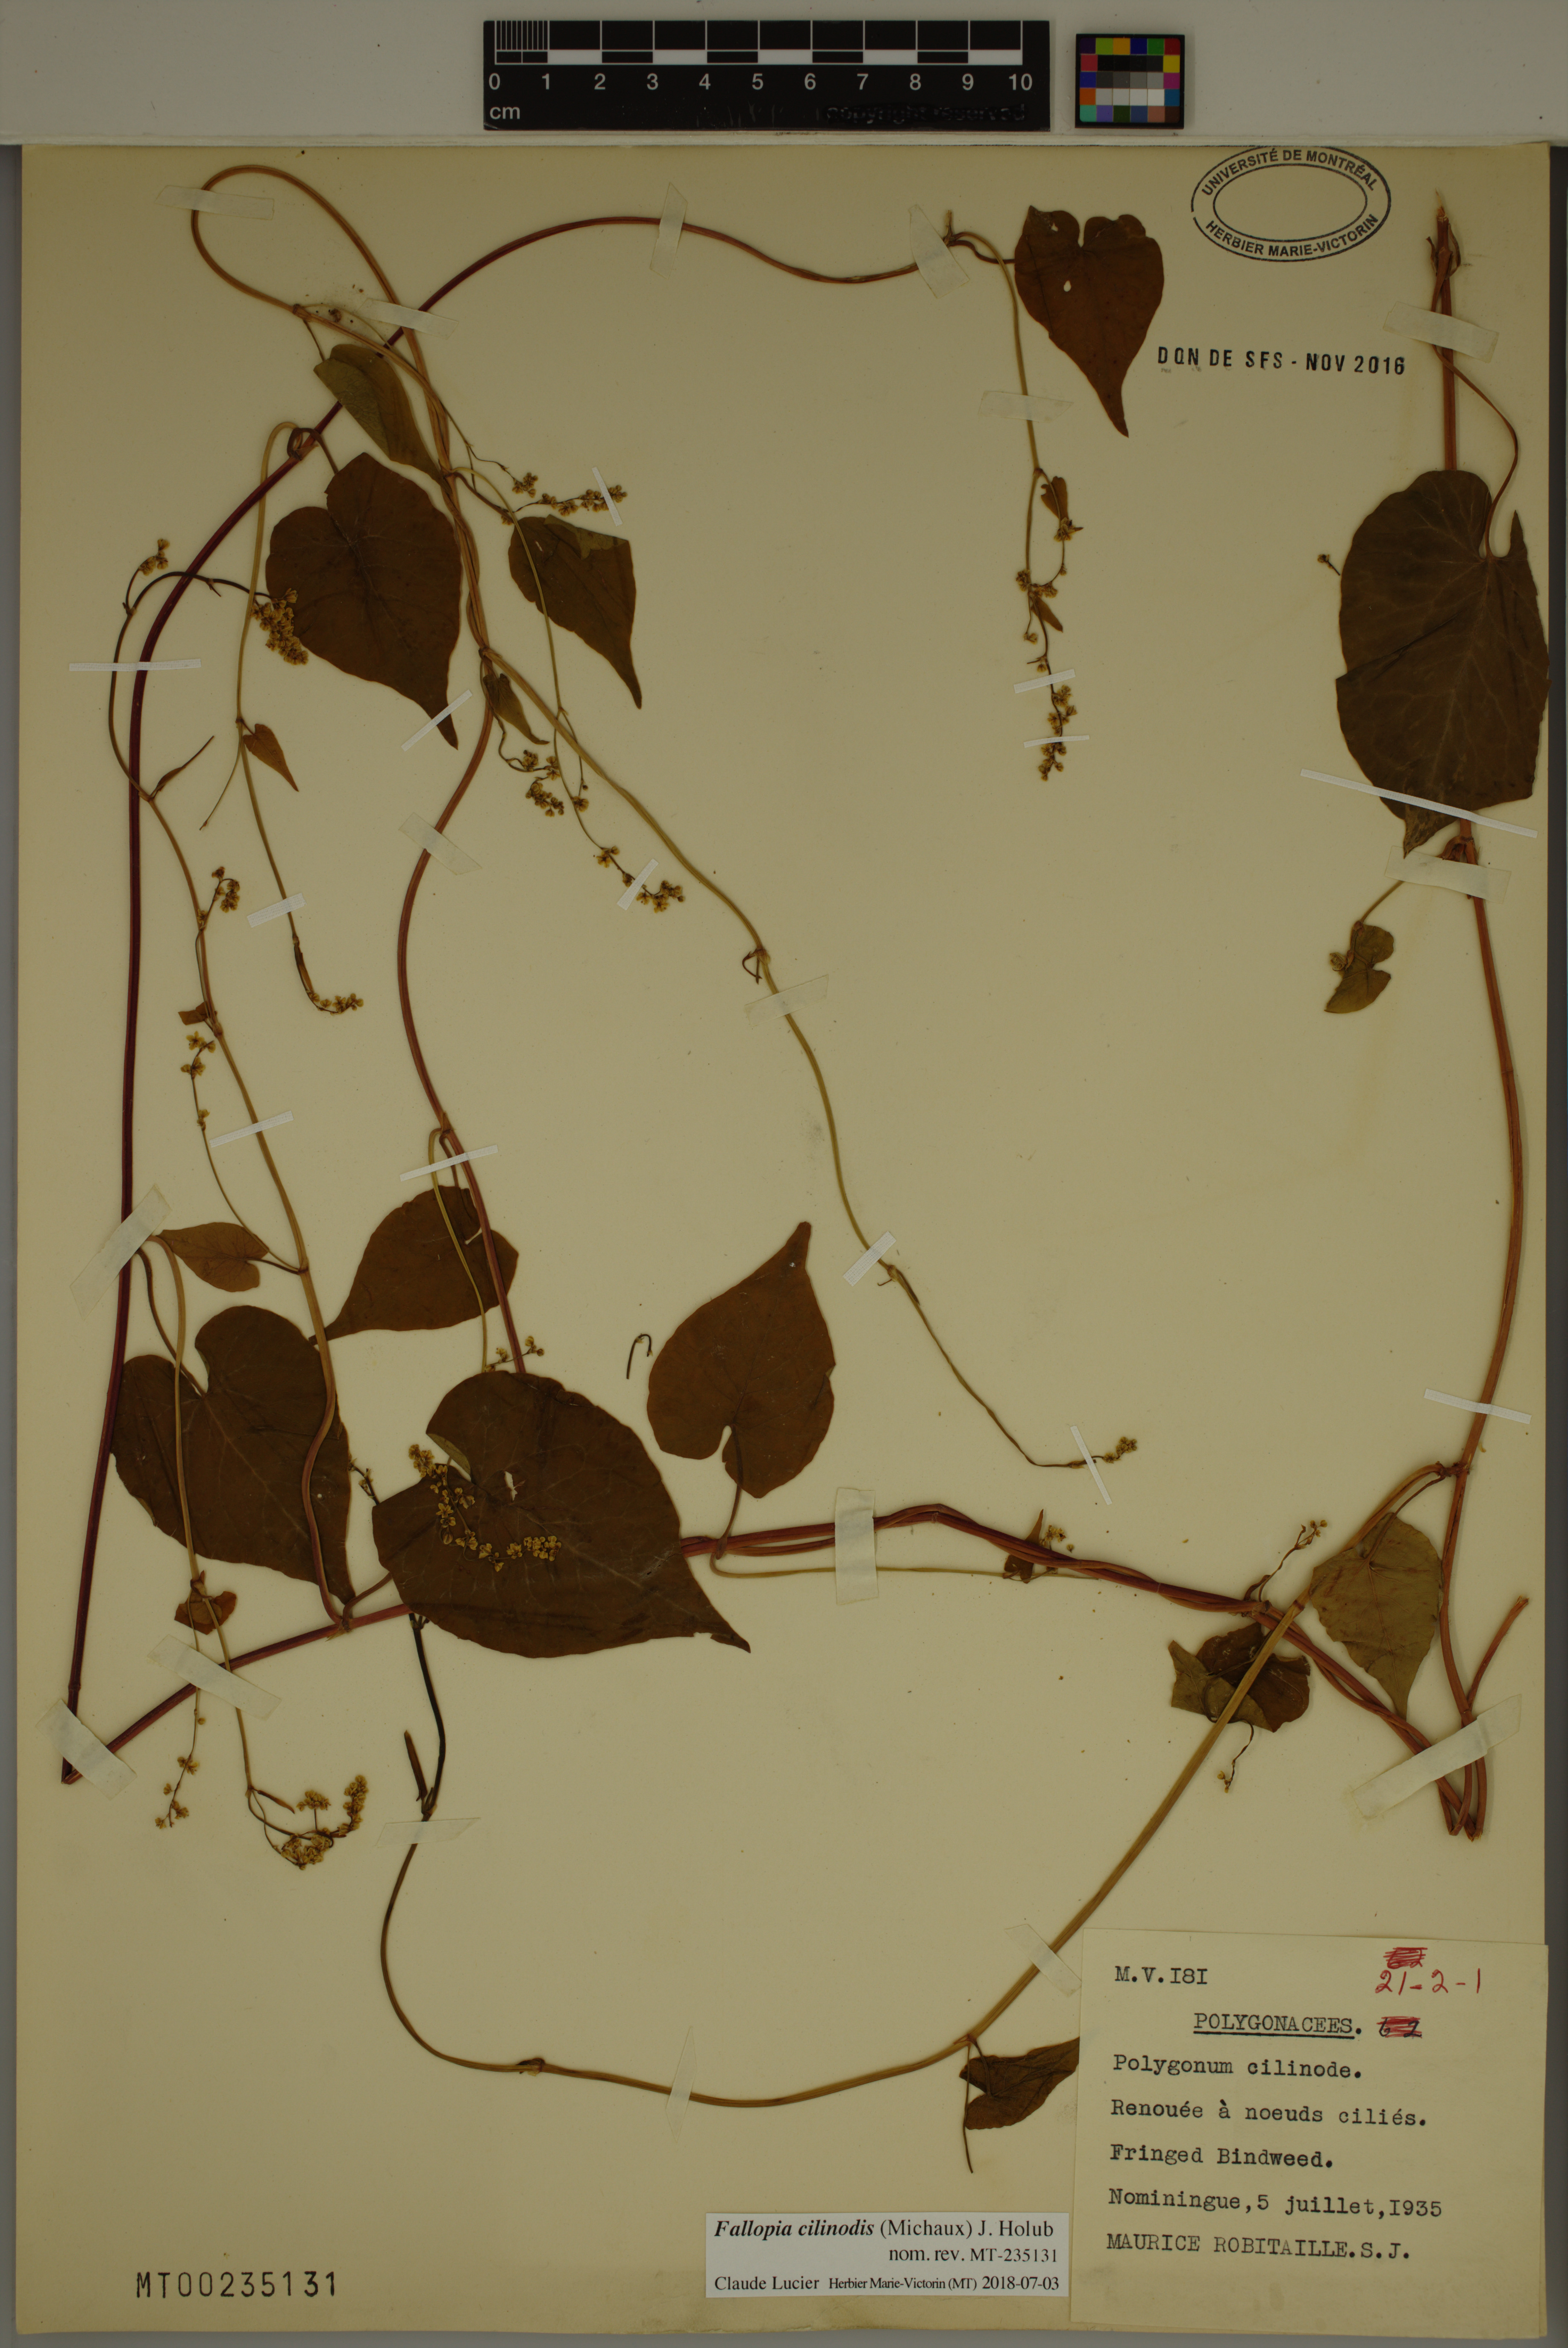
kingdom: Plantae
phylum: Tracheophyta
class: Magnoliopsida
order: Caryophyllales
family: Polygonaceae
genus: Parogonum
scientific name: Parogonum ciliinode
